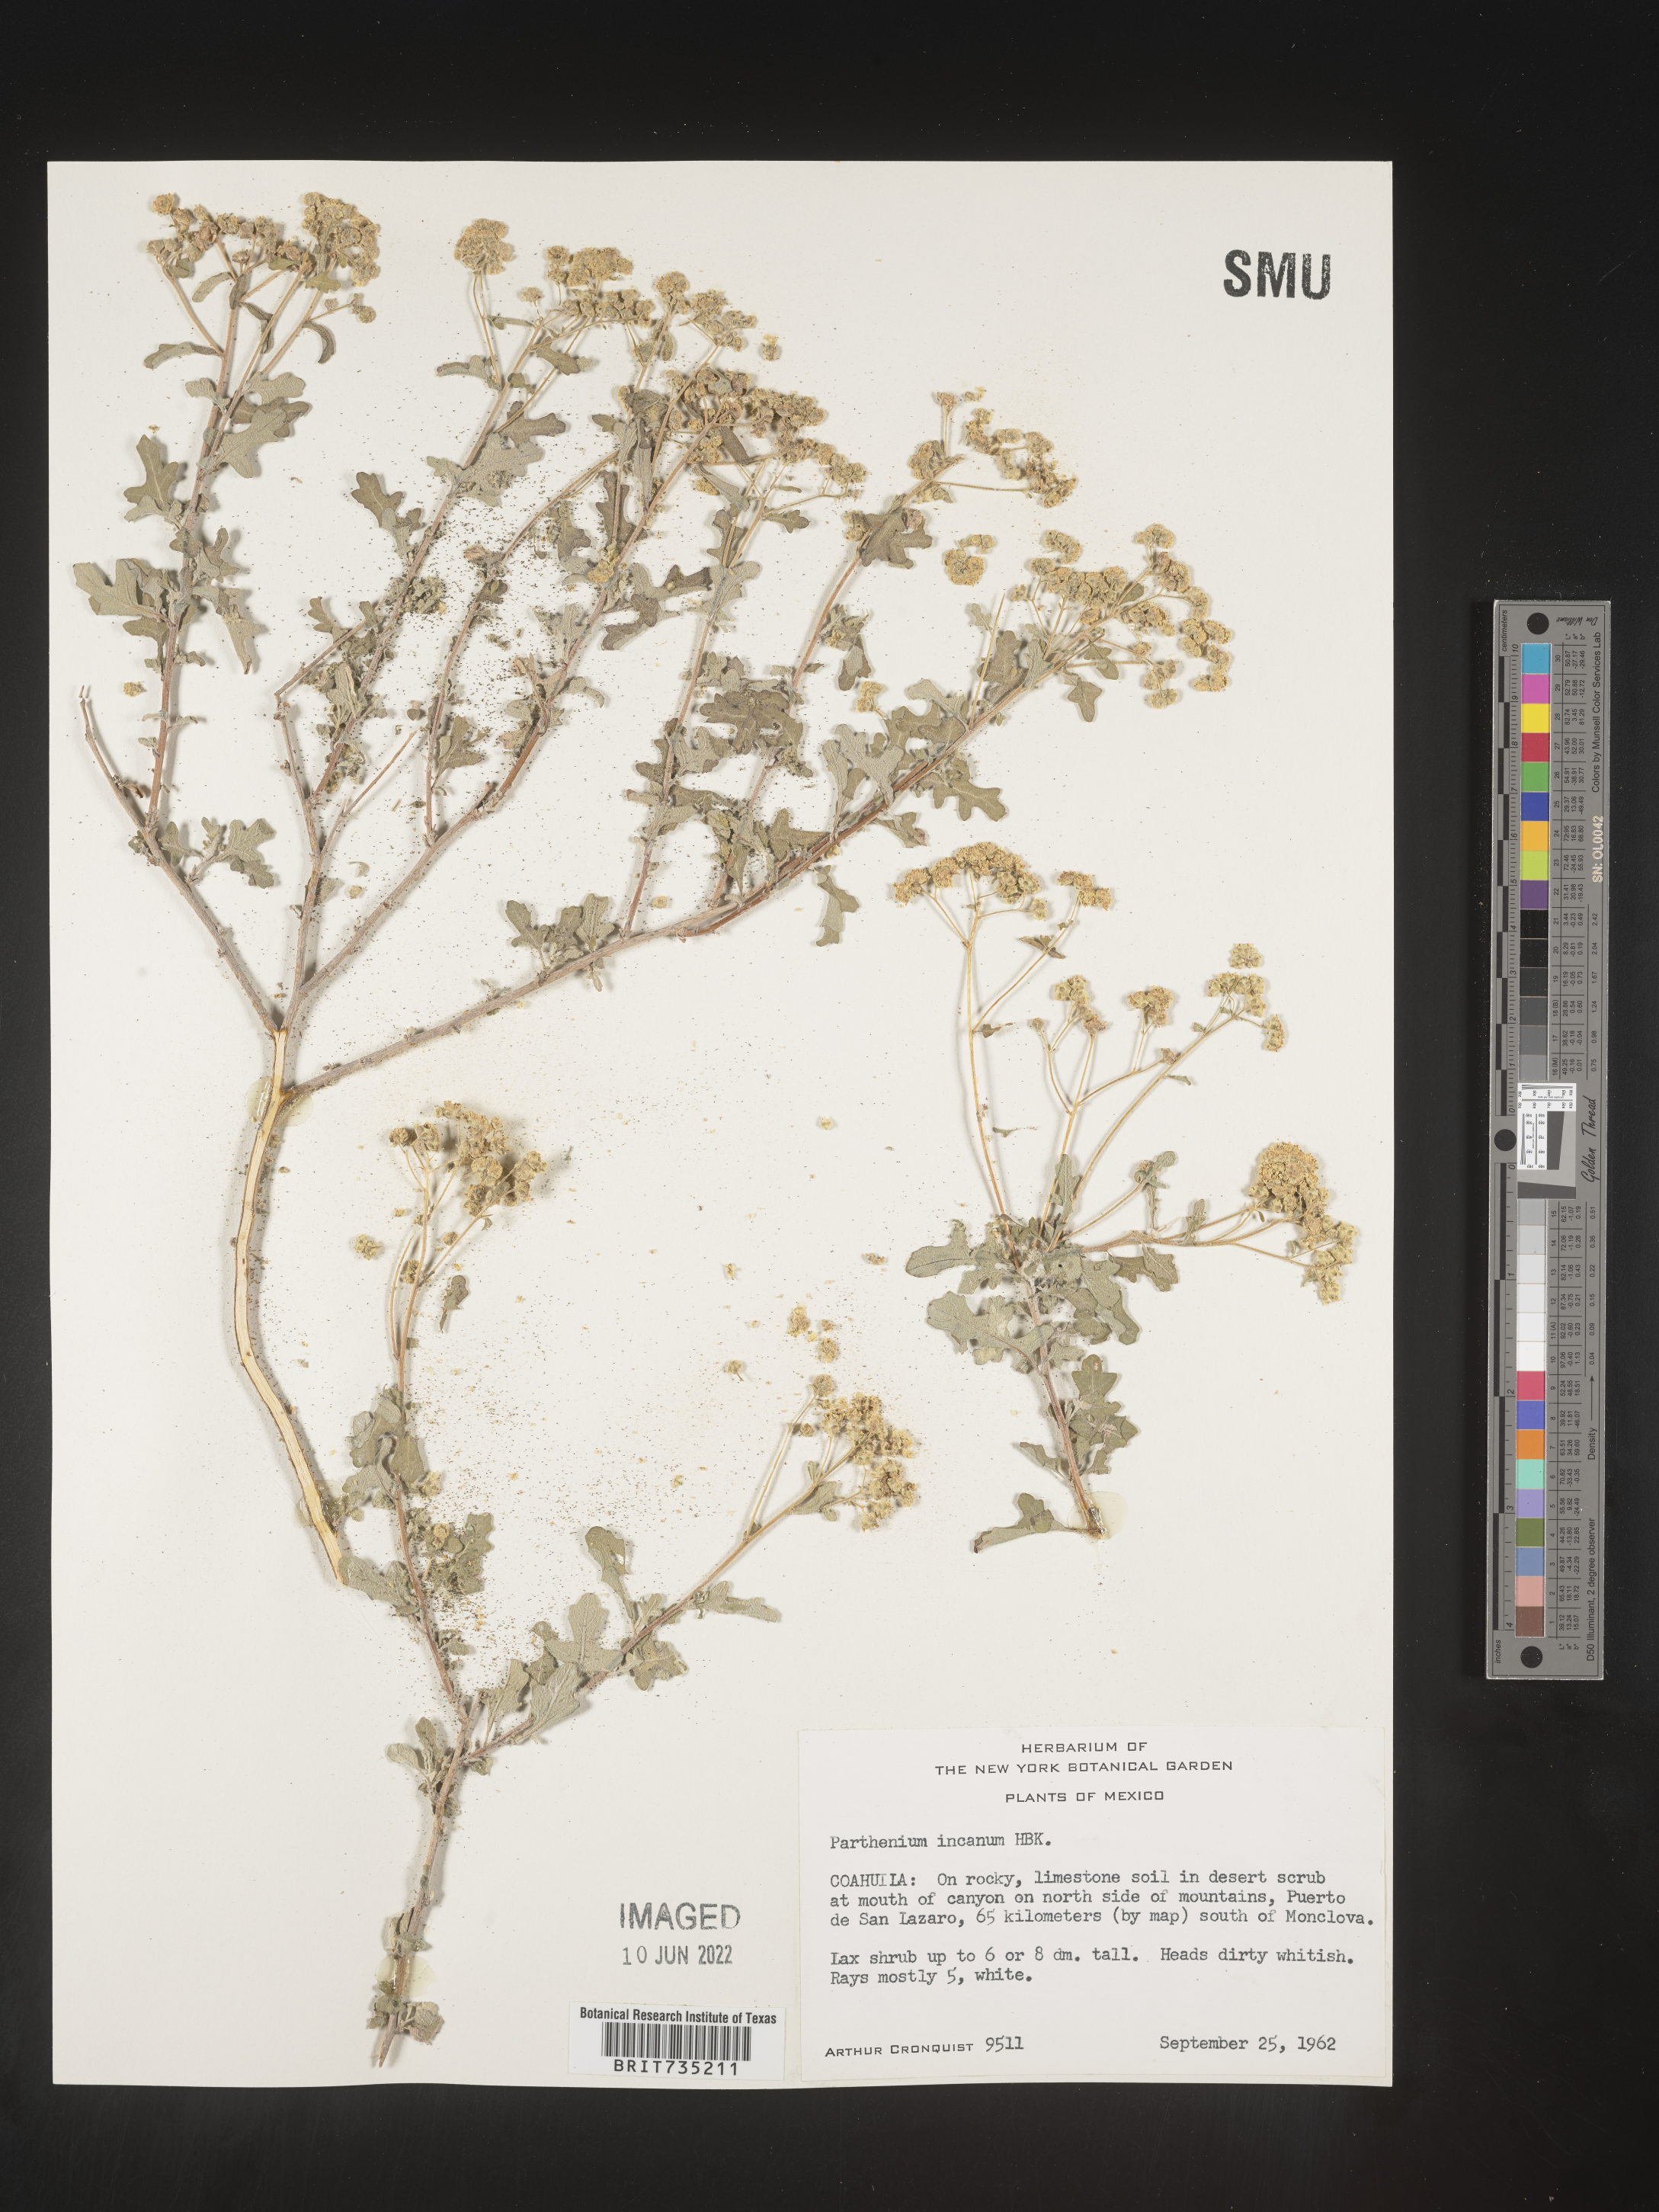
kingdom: Plantae
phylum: Tracheophyta
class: Magnoliopsida
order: Asterales
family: Asteraceae
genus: Parthenium
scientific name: Parthenium
